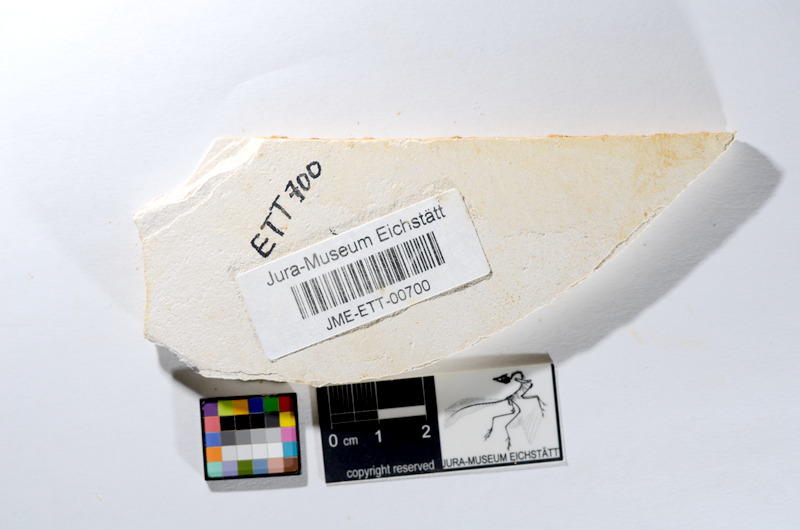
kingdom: Animalia
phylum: Chordata
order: Salmoniformes
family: Orthogonikleithridae
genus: Orthogonikleithrus
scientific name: Orthogonikleithrus hoelli
